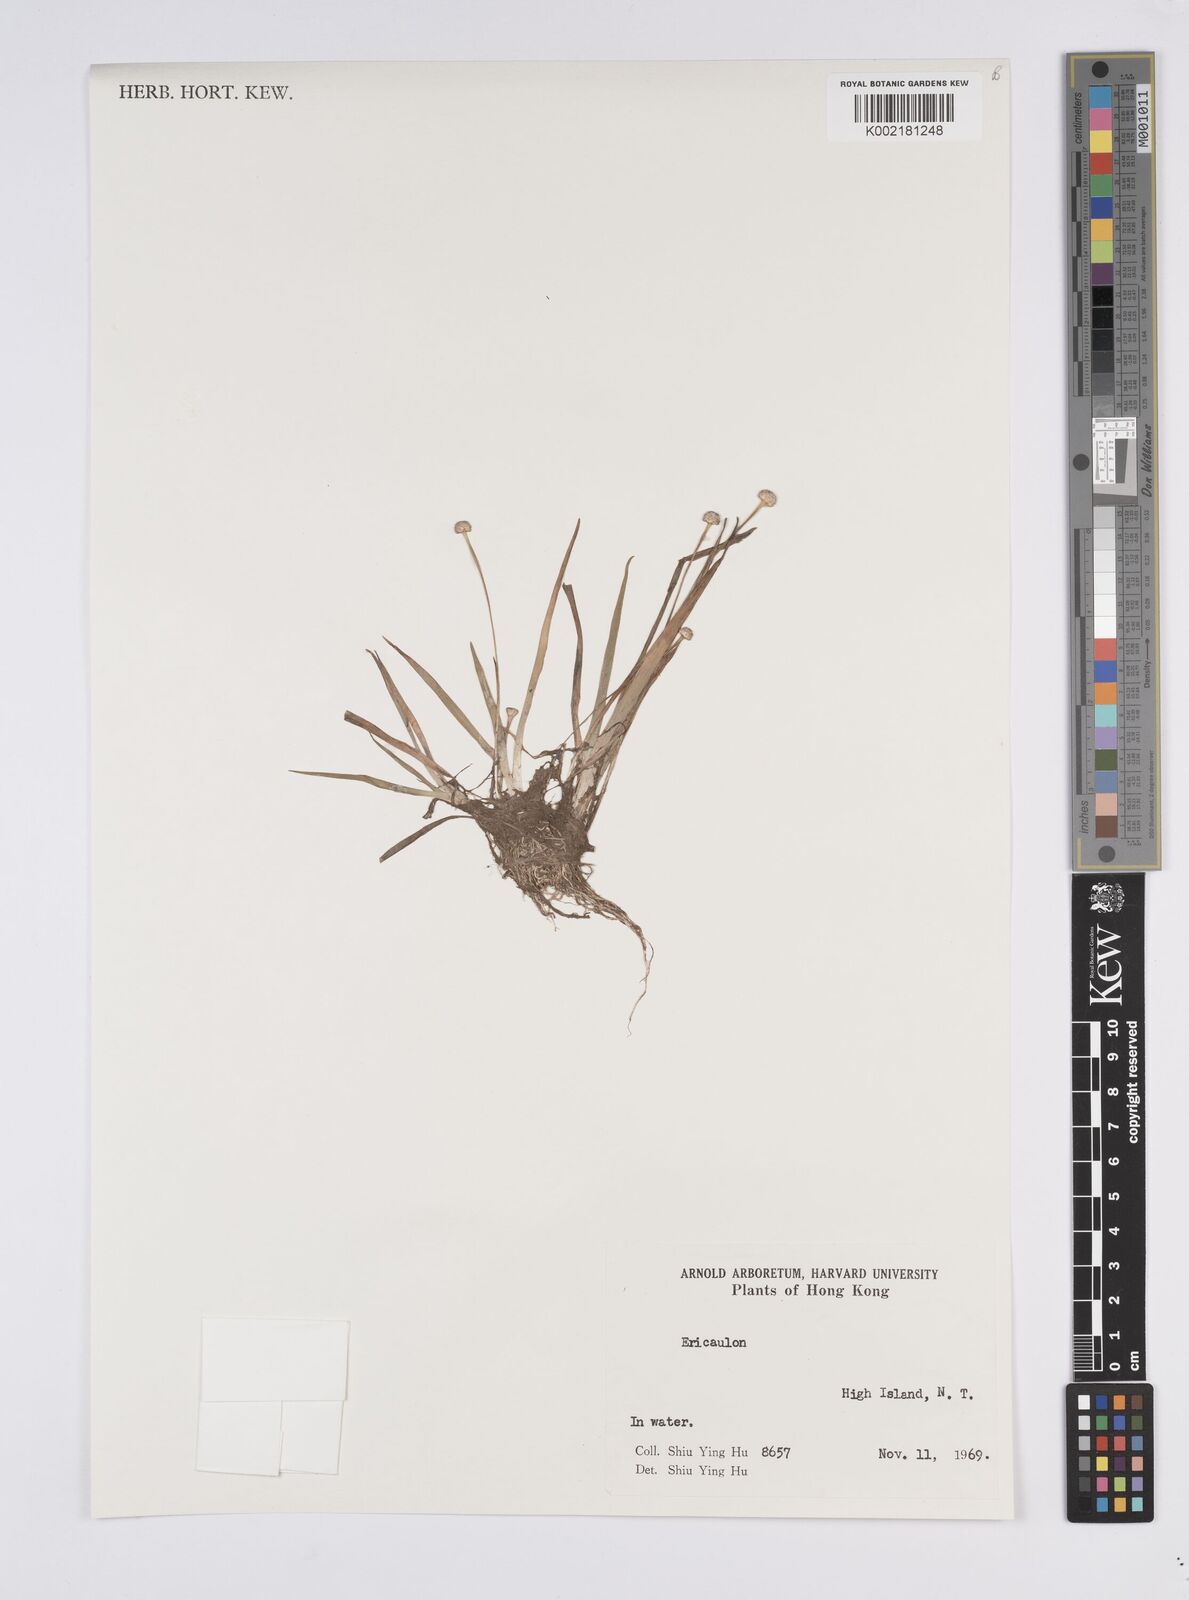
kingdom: Plantae
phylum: Tracheophyta
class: Liliopsida
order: Poales
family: Eriocaulaceae
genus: Eriocaulon
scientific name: Eriocaulon
